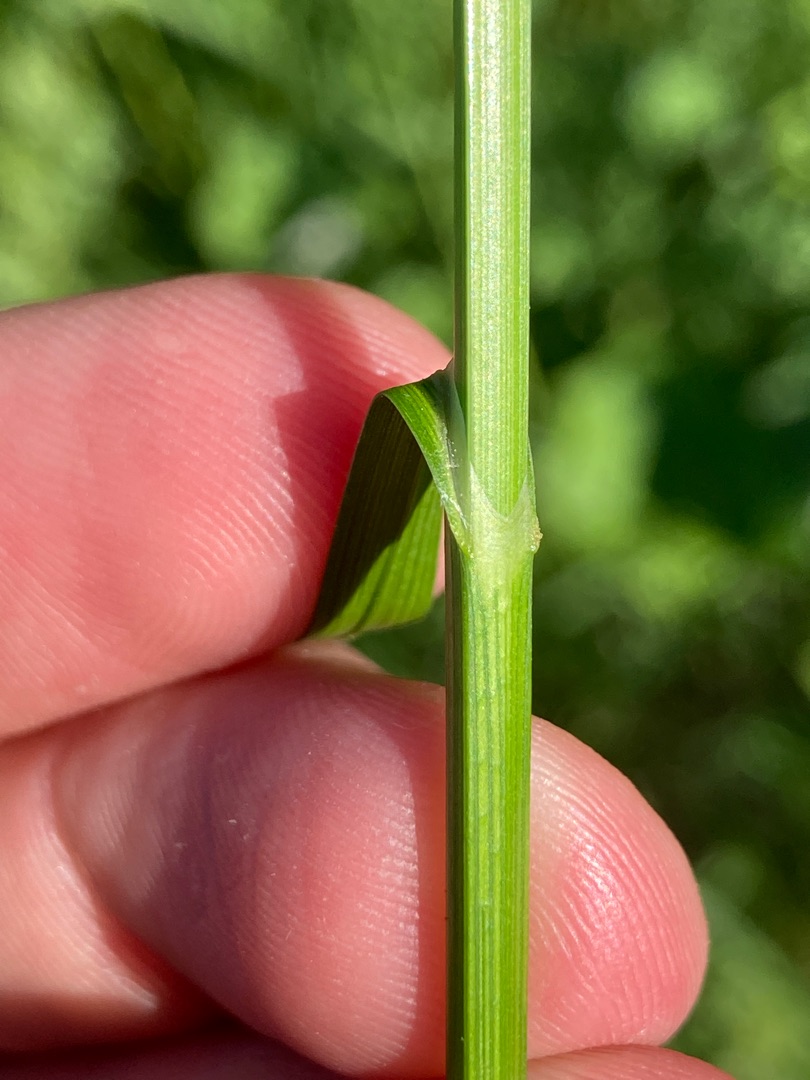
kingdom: Plantae
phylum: Tracheophyta
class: Liliopsida
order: Poales
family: Cyperaceae
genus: Carex
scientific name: Carex disticha
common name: Toradet star
